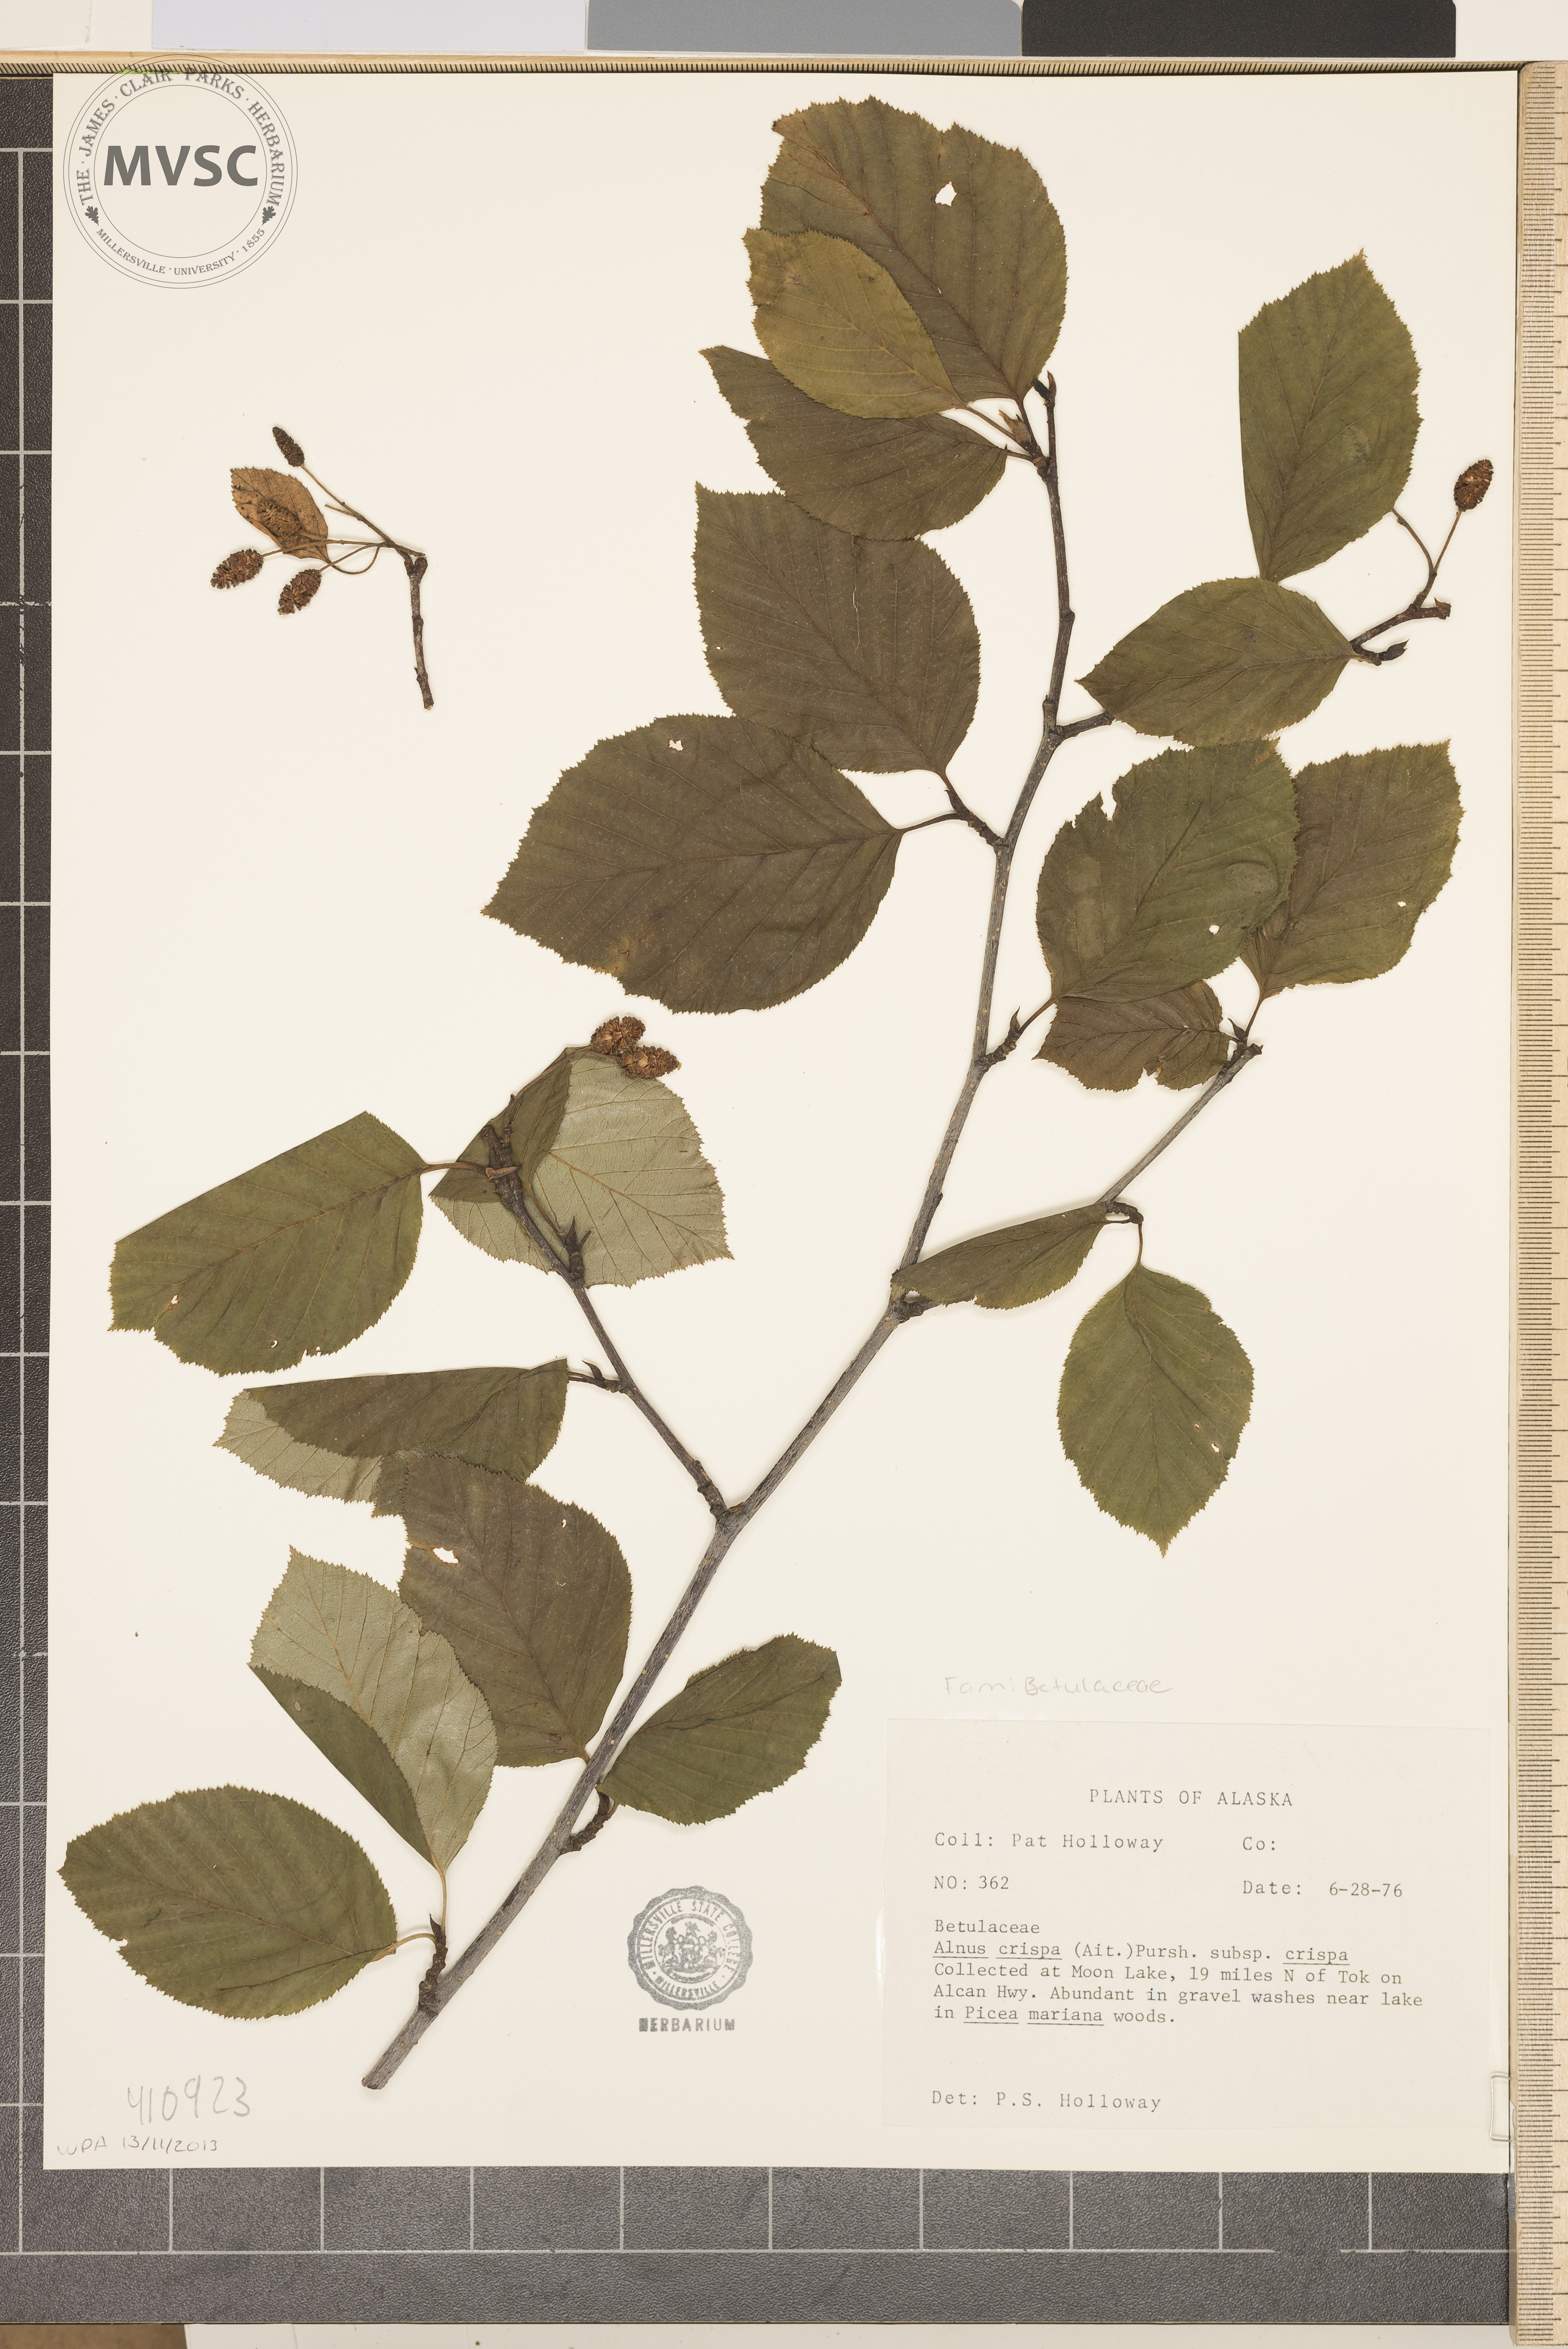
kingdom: Plantae
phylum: Tracheophyta
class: Magnoliopsida
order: Fagales
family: Betulaceae
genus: Alnus
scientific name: Alnus crispa
